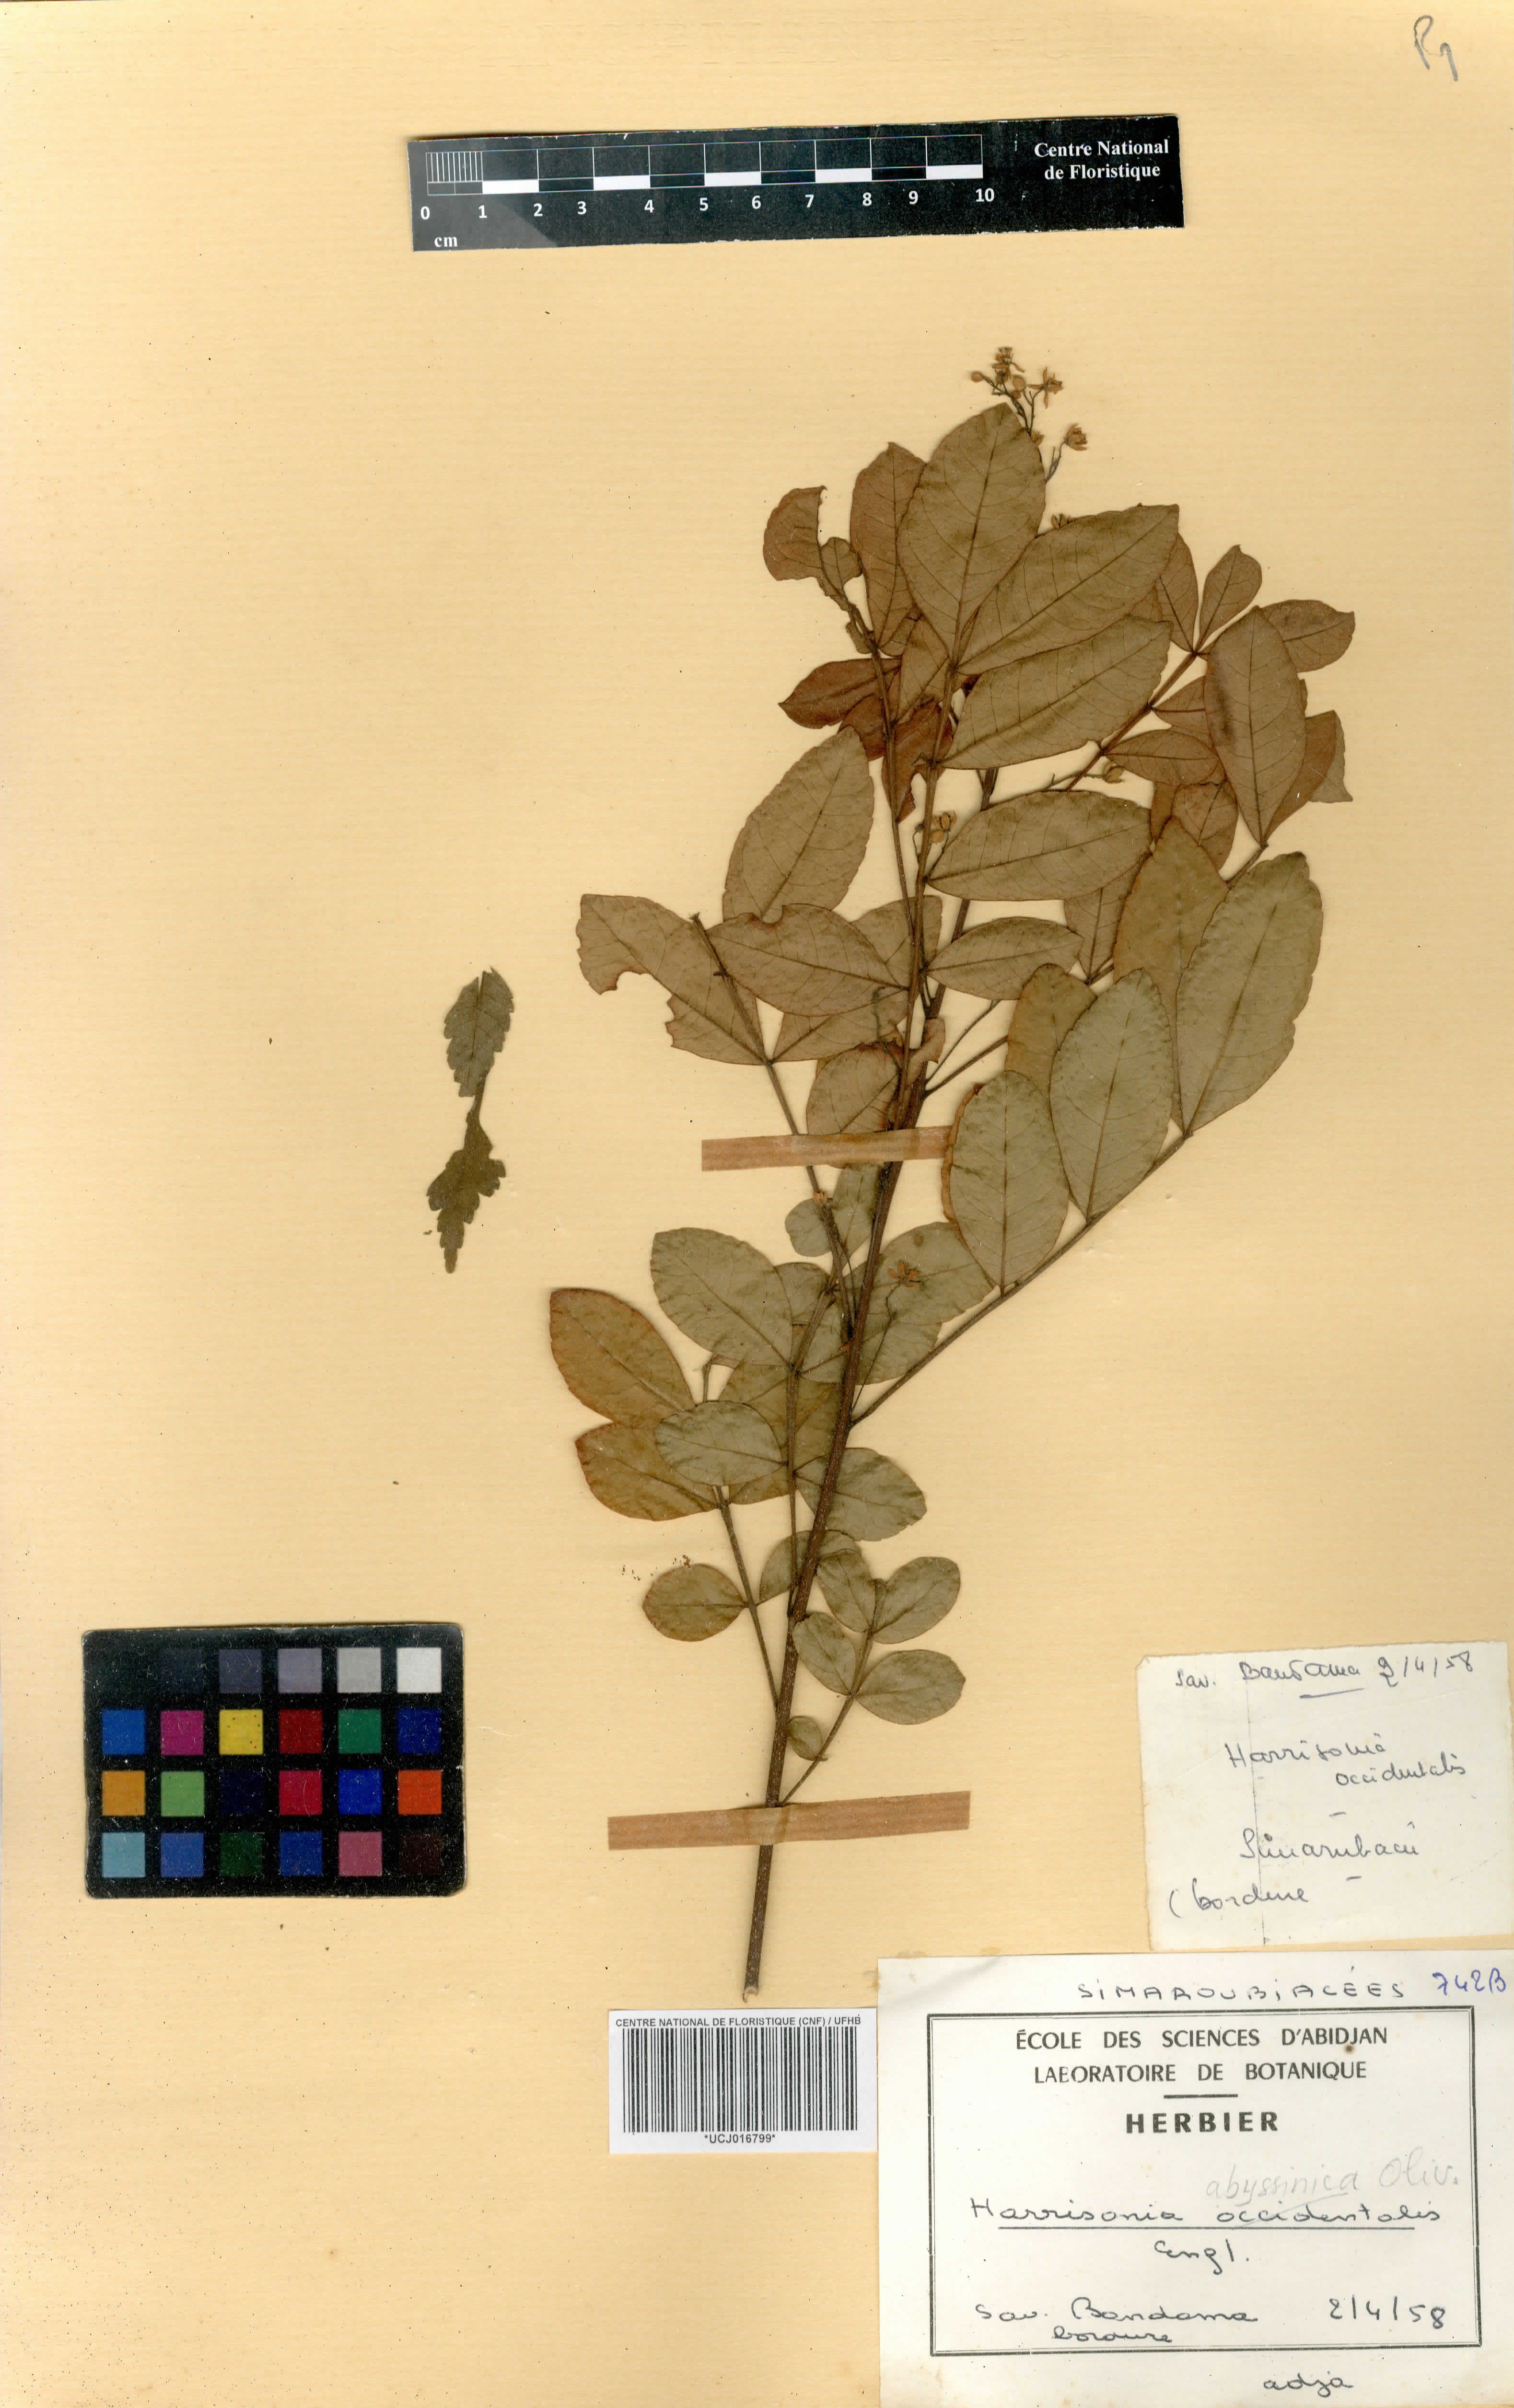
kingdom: Plantae
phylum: Tracheophyta
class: Magnoliopsida
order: Sapindales
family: Rutaceae
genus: Harrisonia
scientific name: Harrisonia abyssinica
